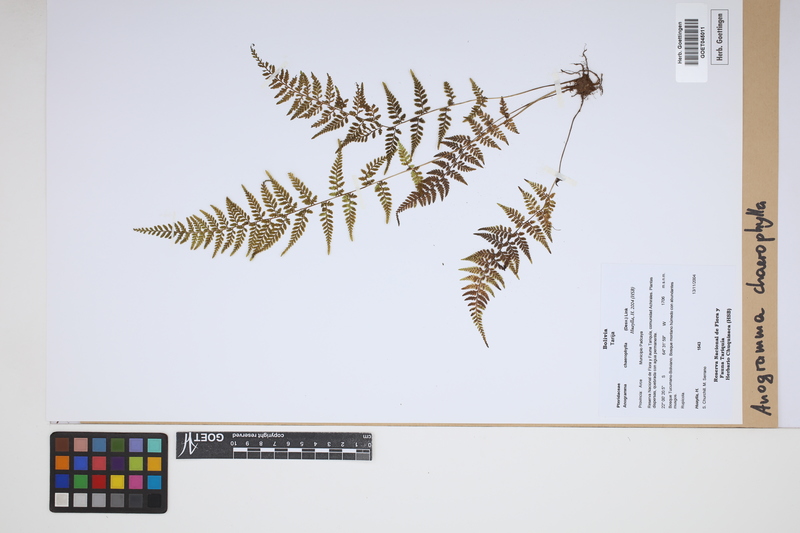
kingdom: Plantae
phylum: Tracheophyta
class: Polypodiopsida
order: Polypodiales
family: Pteridaceae
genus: Gastoniella
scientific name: Gastoniella chaerophylla
